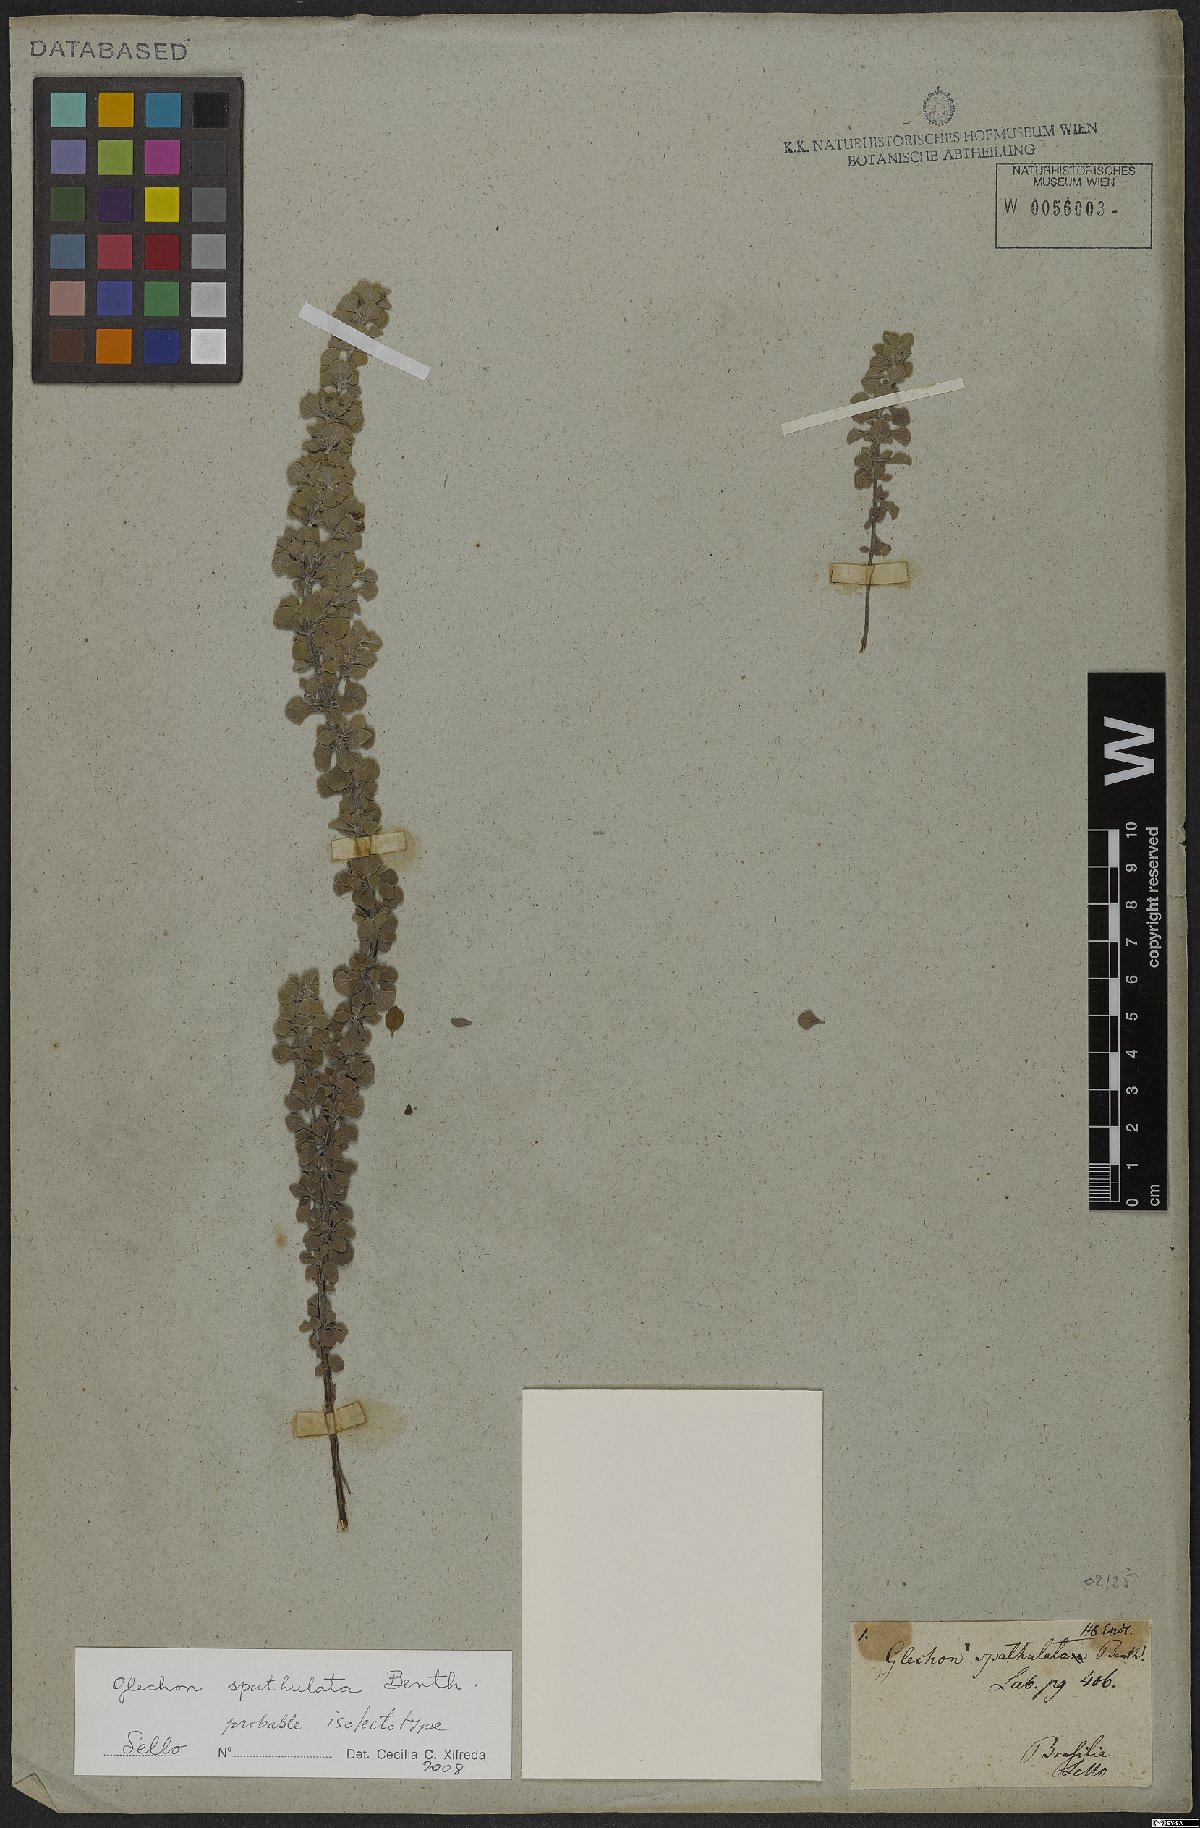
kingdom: Plantae
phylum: Tracheophyta
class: Magnoliopsida
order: Lamiales
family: Lamiaceae
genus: Glechon
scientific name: Glechon thymoides
